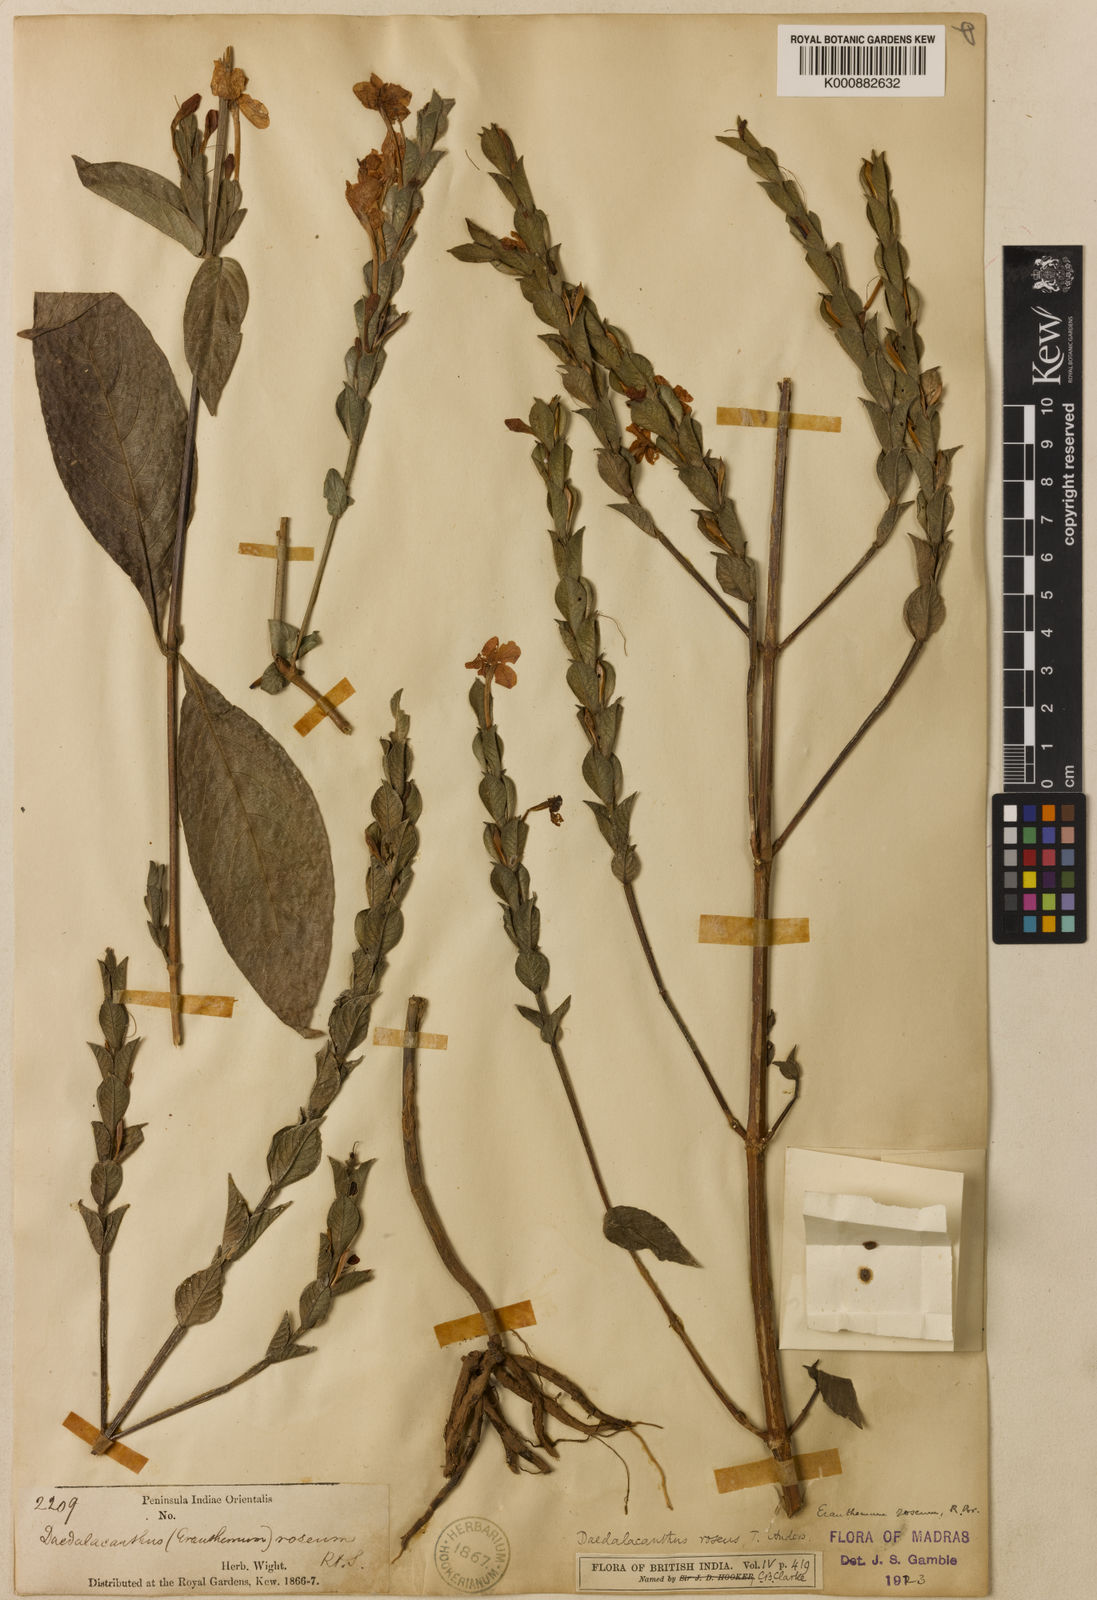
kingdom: Plantae
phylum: Tracheophyta
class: Magnoliopsida
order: Lamiales
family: Acanthaceae
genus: Eranthemum
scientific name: Eranthemum
